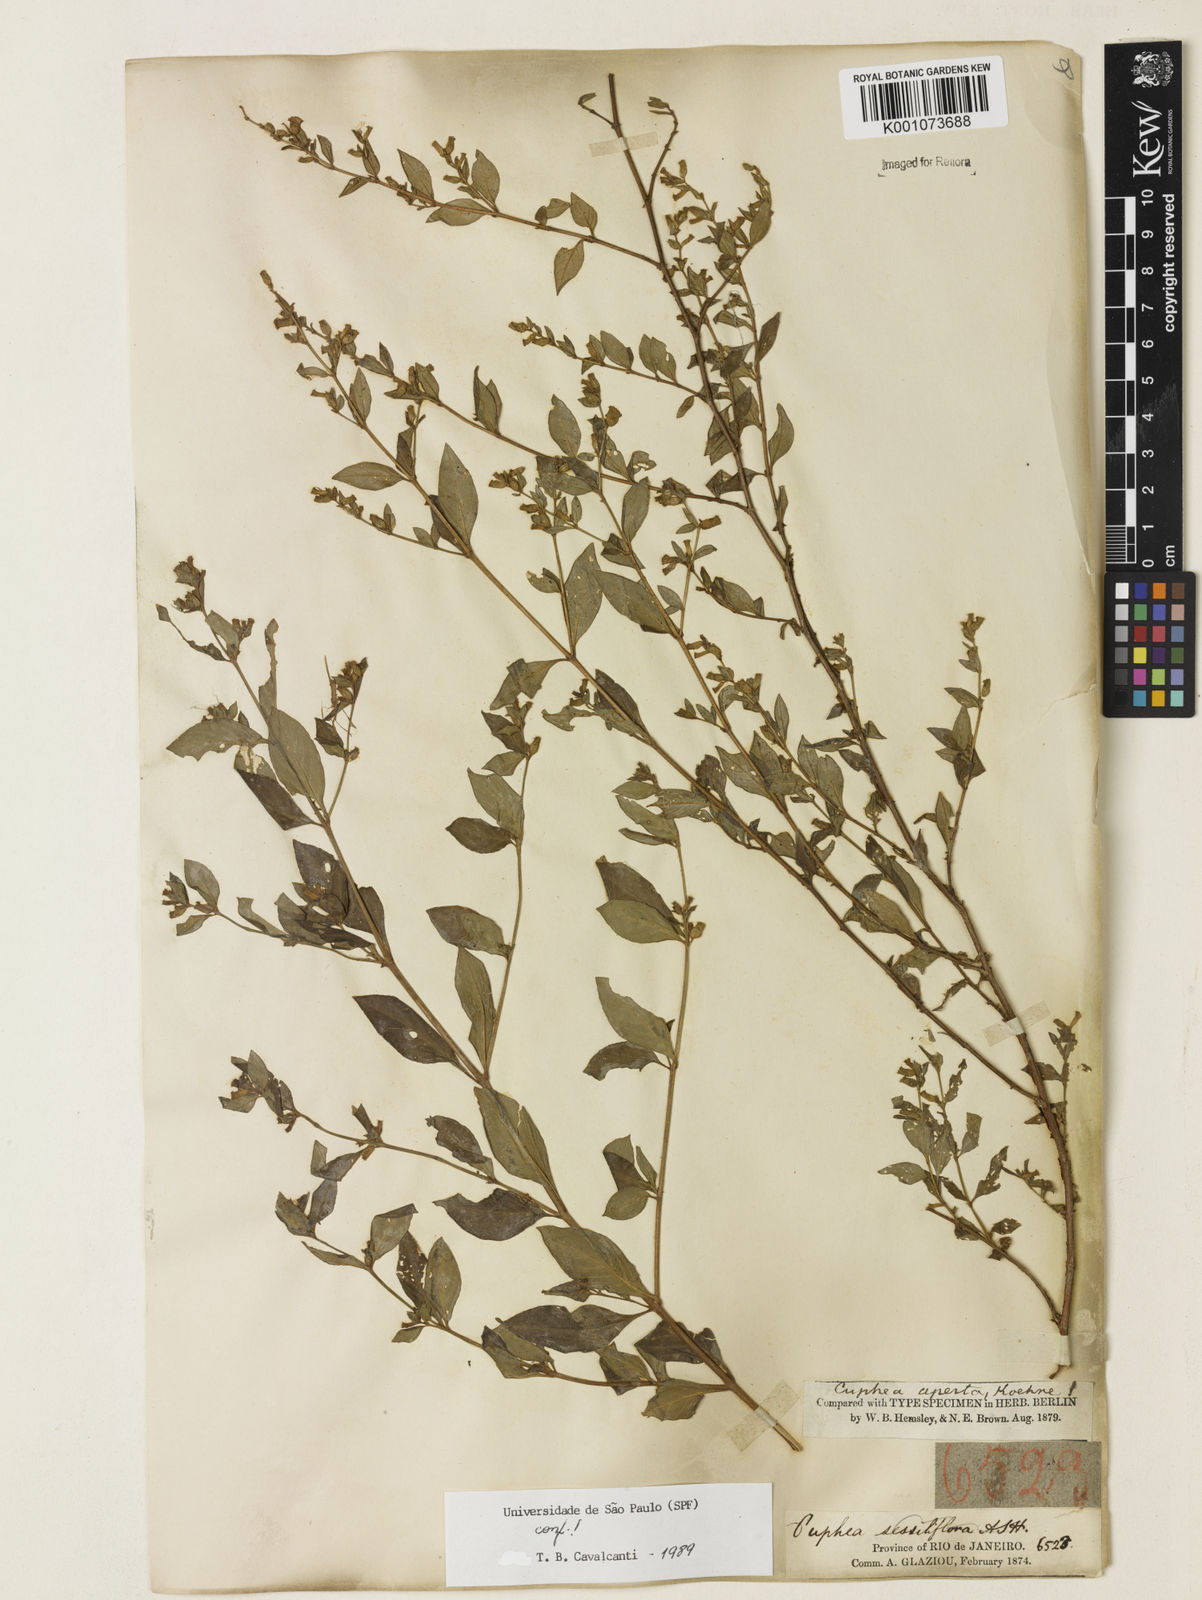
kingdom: Plantae
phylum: Tracheophyta
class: Magnoliopsida
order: Myrtales
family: Lythraceae
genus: Cuphea
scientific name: Cuphea aperta
